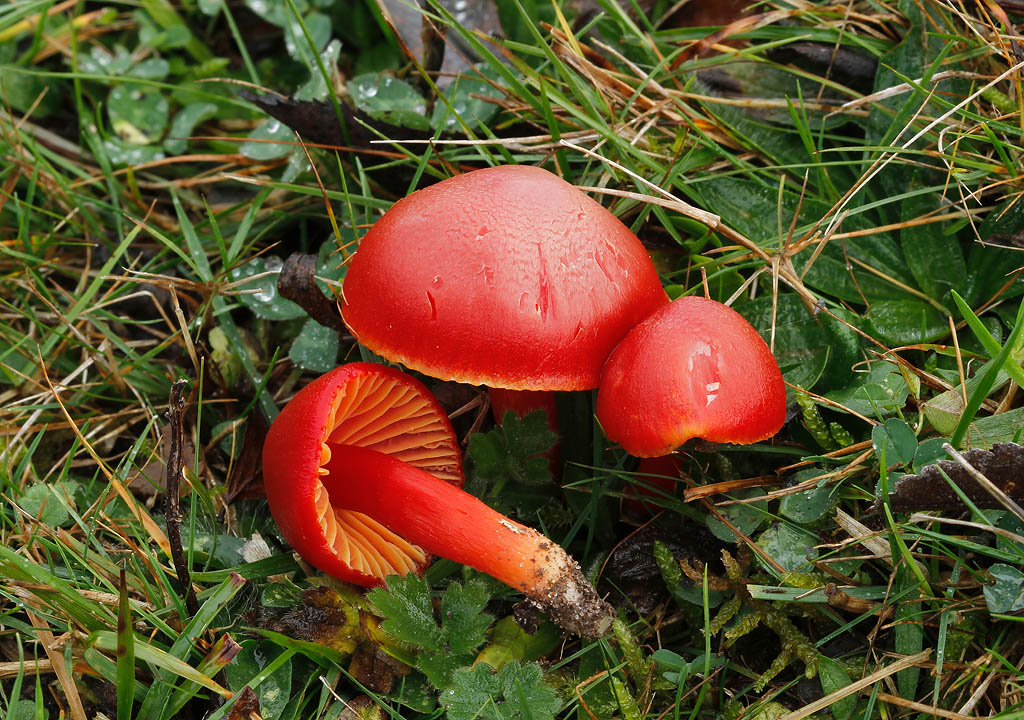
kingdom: Fungi
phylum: Basidiomycota
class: Agaricomycetes
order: Agaricales
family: Hygrophoraceae
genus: Hygrocybe
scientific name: Hygrocybe coccinea
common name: cinnober-vokshat
